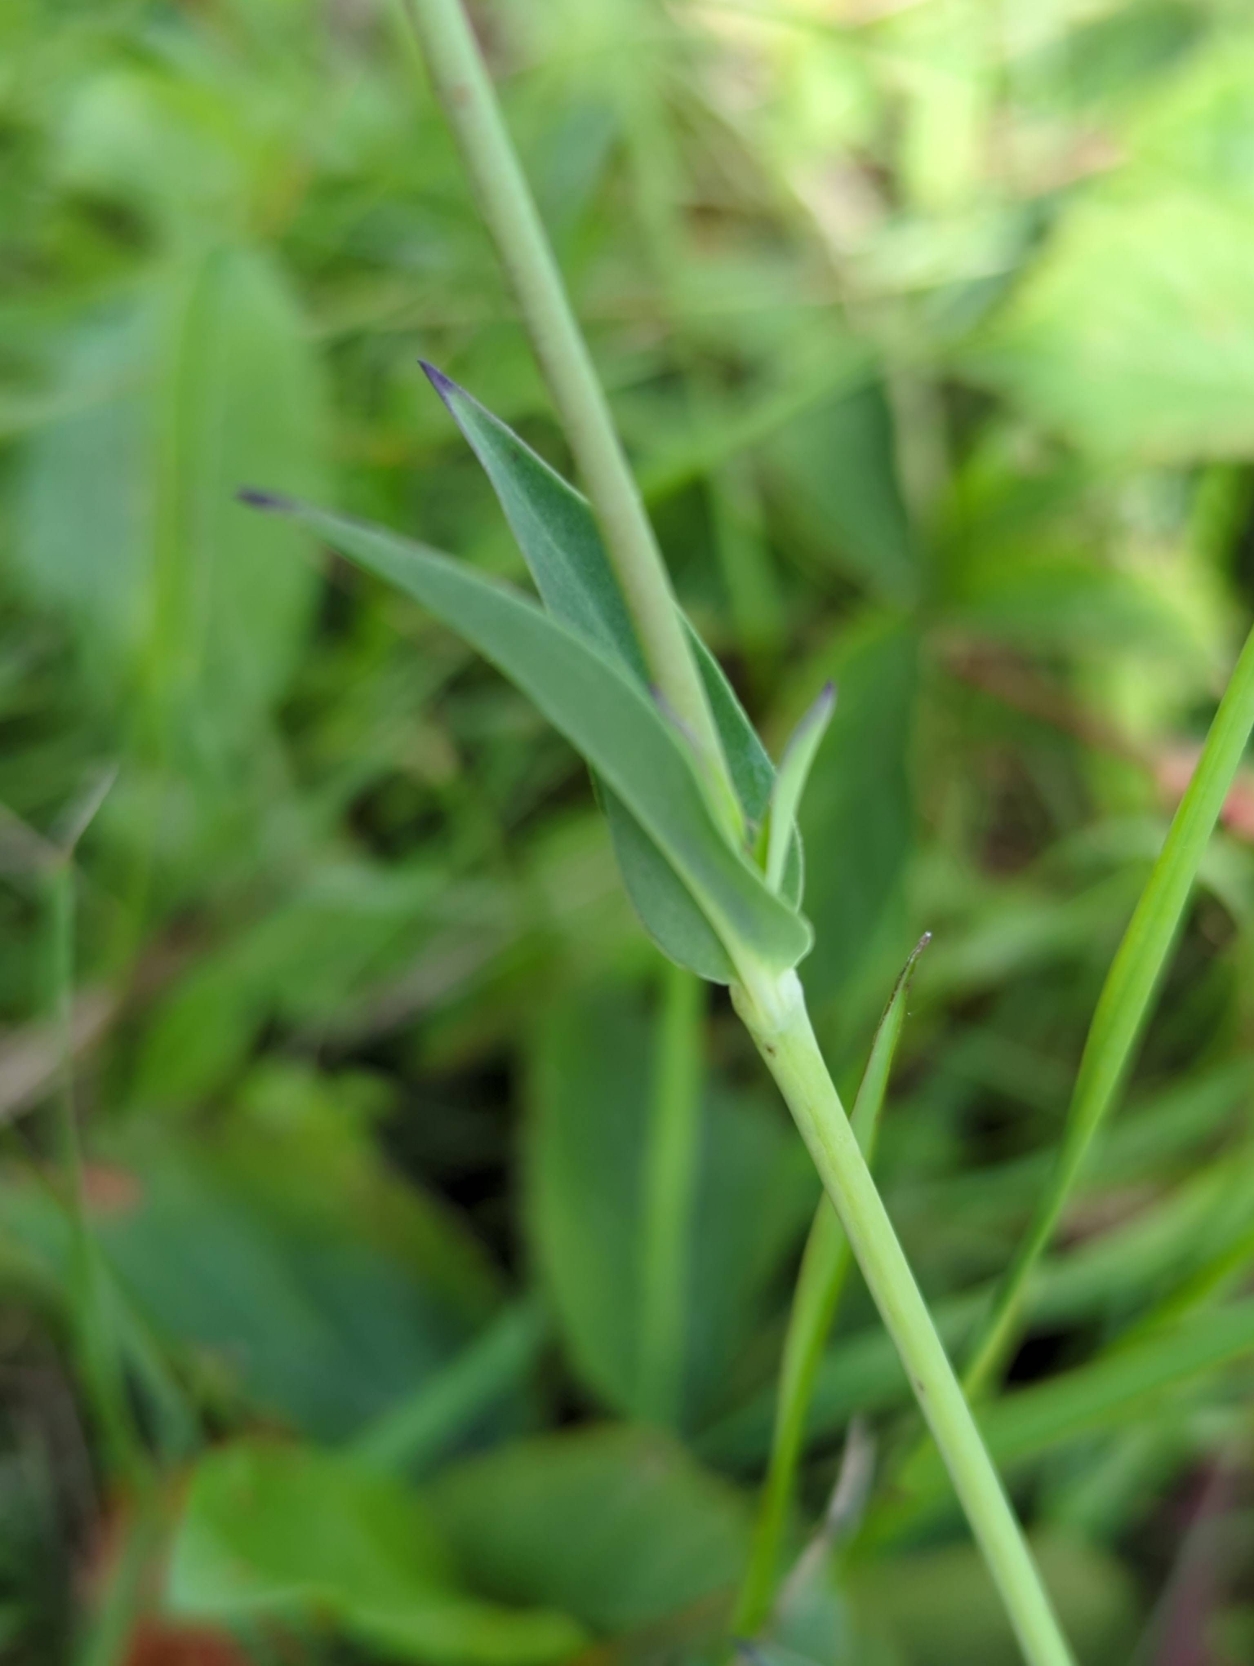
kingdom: Plantae
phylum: Tracheophyta
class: Magnoliopsida
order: Caryophyllales
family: Caryophyllaceae
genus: Silene
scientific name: Silene vulgaris
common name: Blæresmælde
